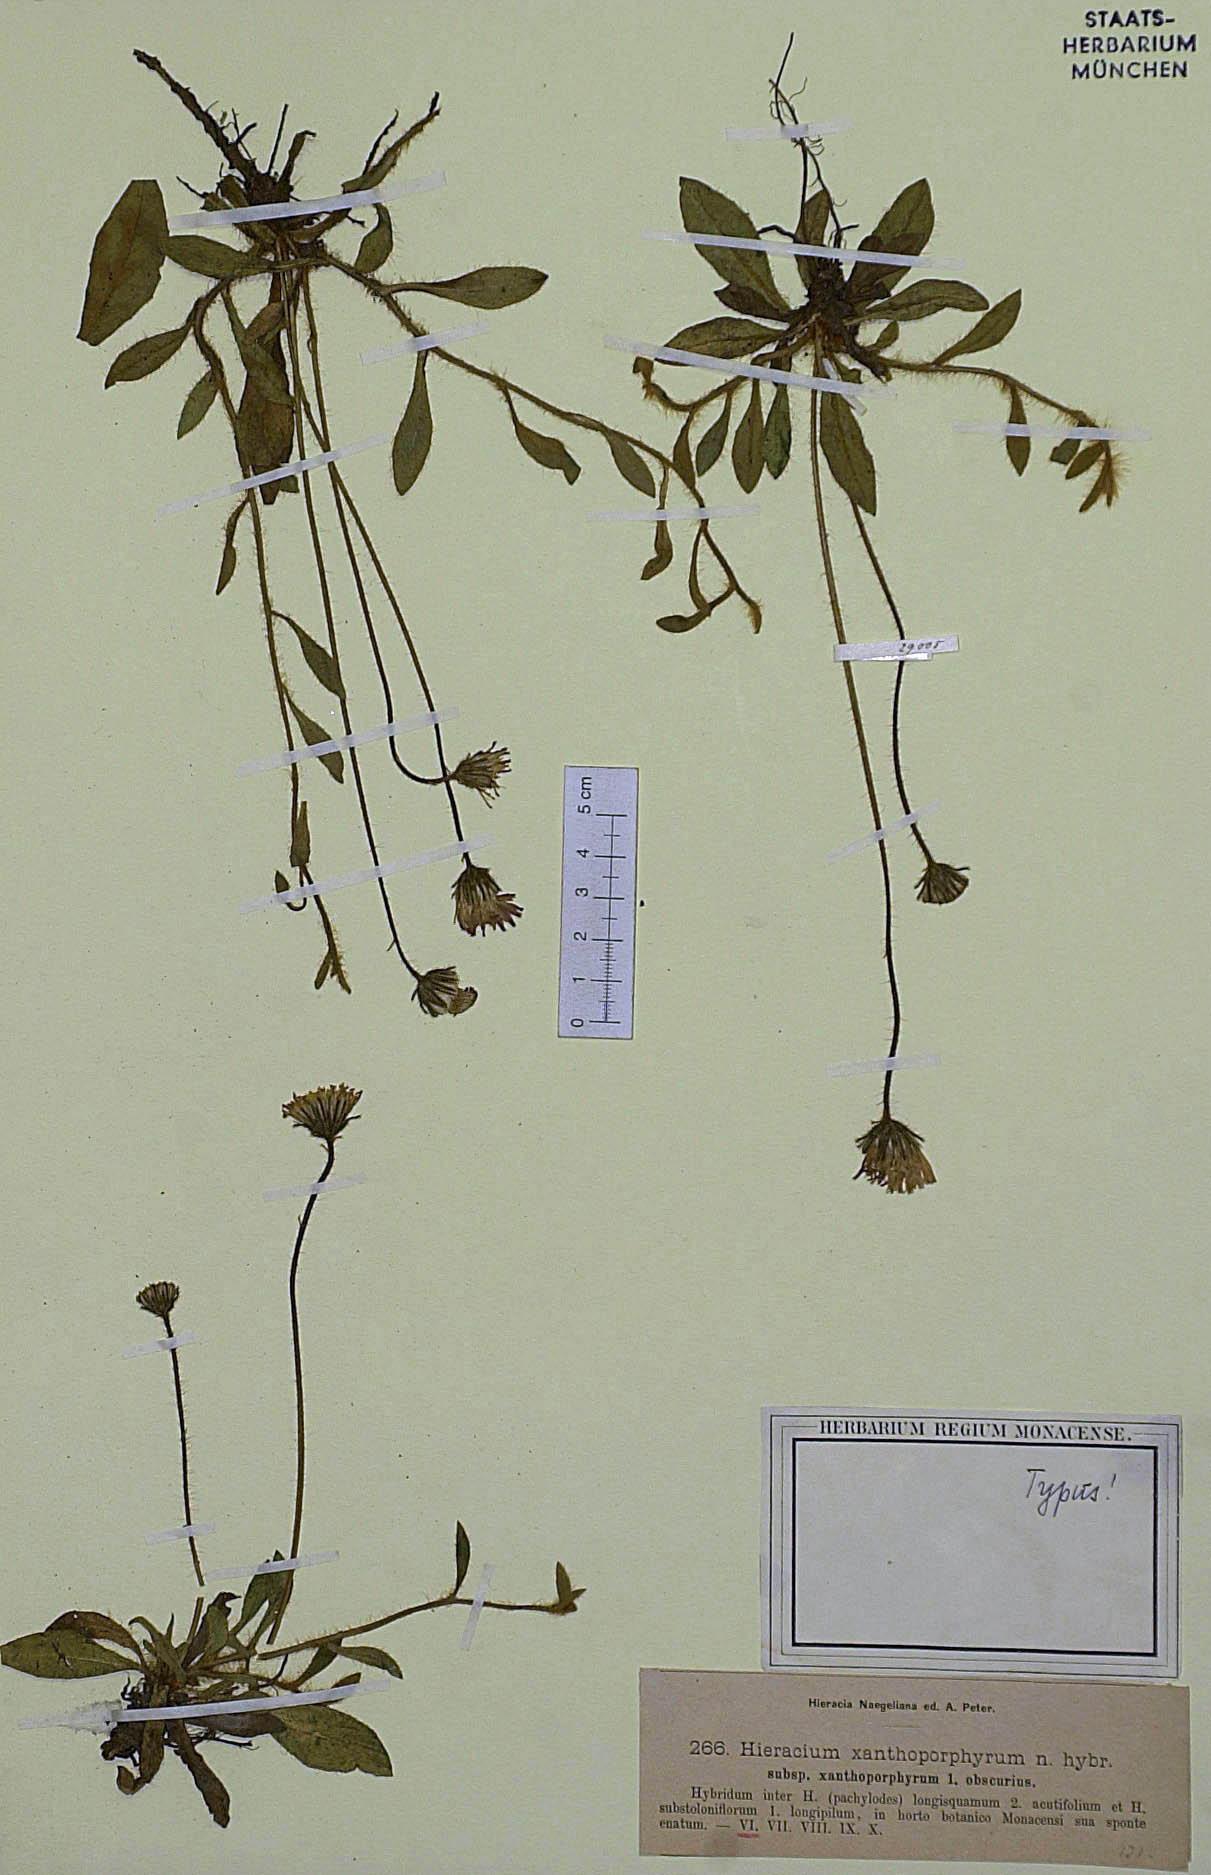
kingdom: Plantae
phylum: Tracheophyta
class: Magnoliopsida
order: Asterales
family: Asteraceae
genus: Hieracium
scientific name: Hieracium xanthoporphyrum
